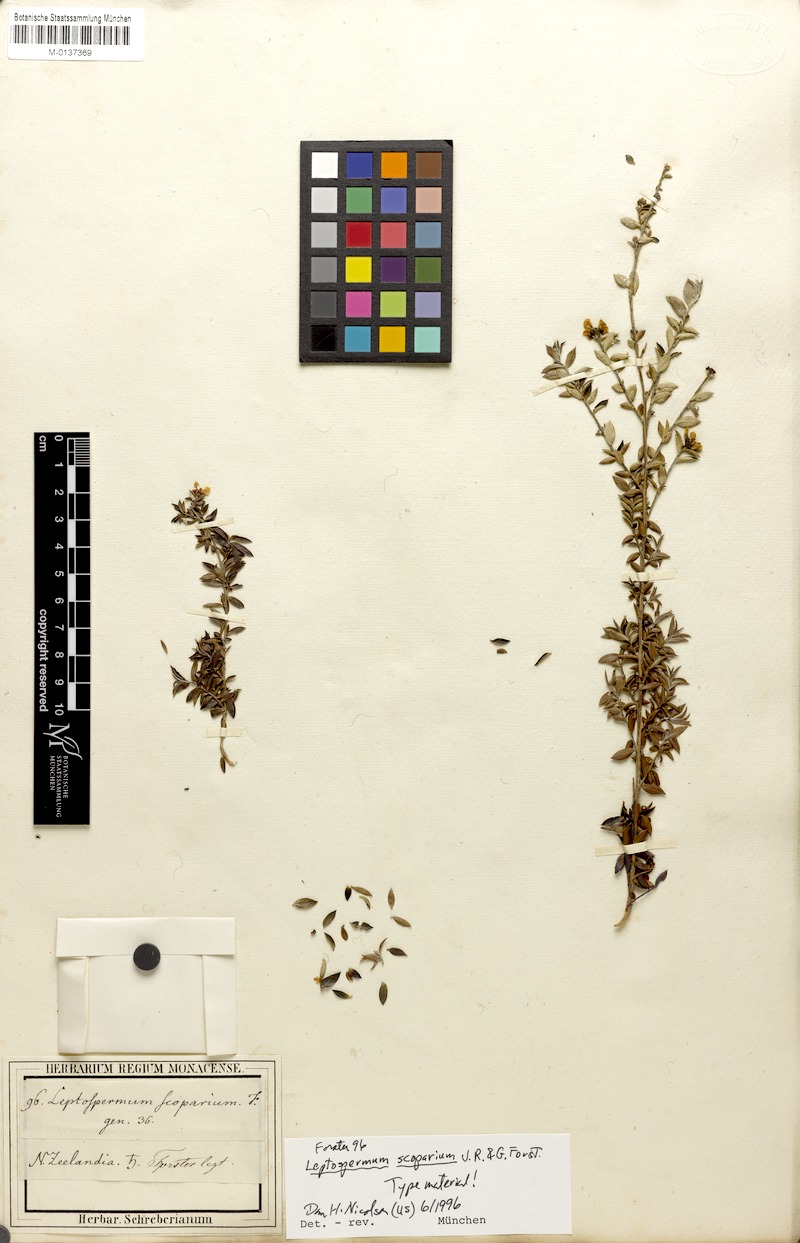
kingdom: Plantae
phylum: Tracheophyta
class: Magnoliopsida
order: Myrtales
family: Myrtaceae
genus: Leptospermum
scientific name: Leptospermum scoparium
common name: Broom tea-tree
